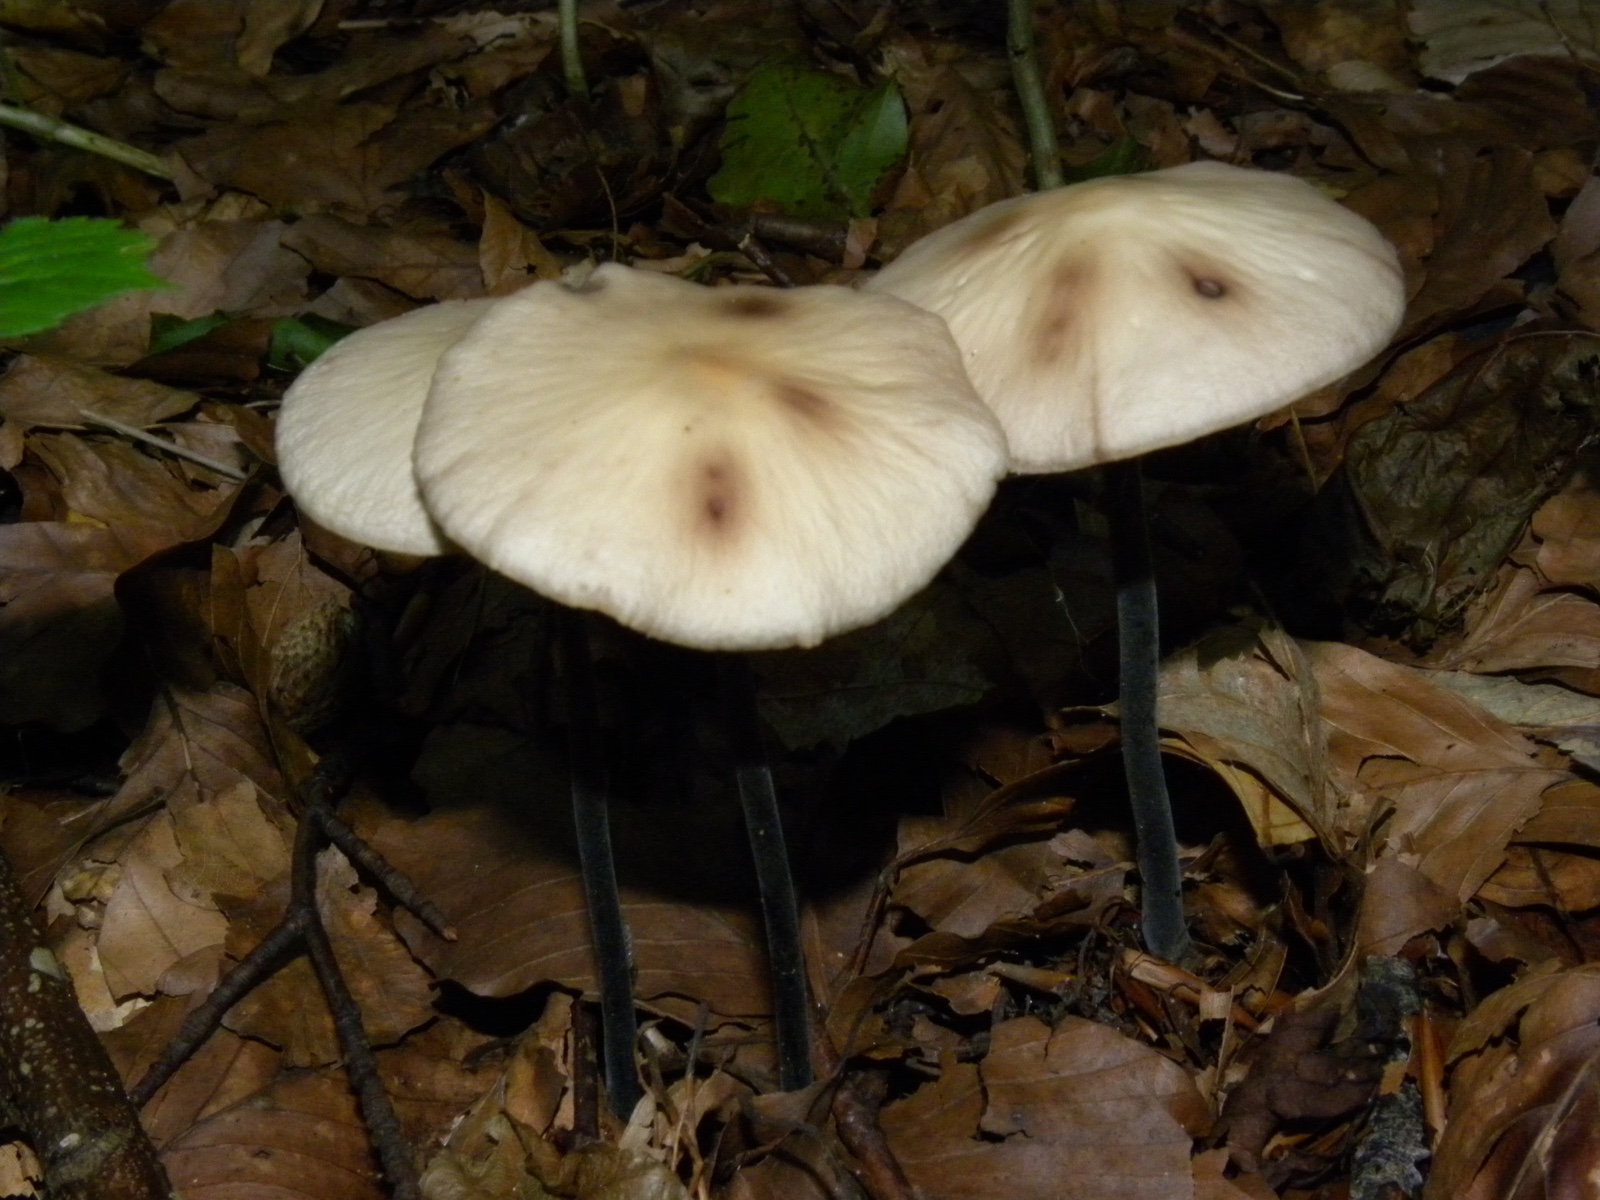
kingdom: Fungi
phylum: Basidiomycota
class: Agaricomycetes
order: Agaricales
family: Omphalotaceae
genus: Mycetinis
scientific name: Mycetinis alliaceus
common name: stor løghat
